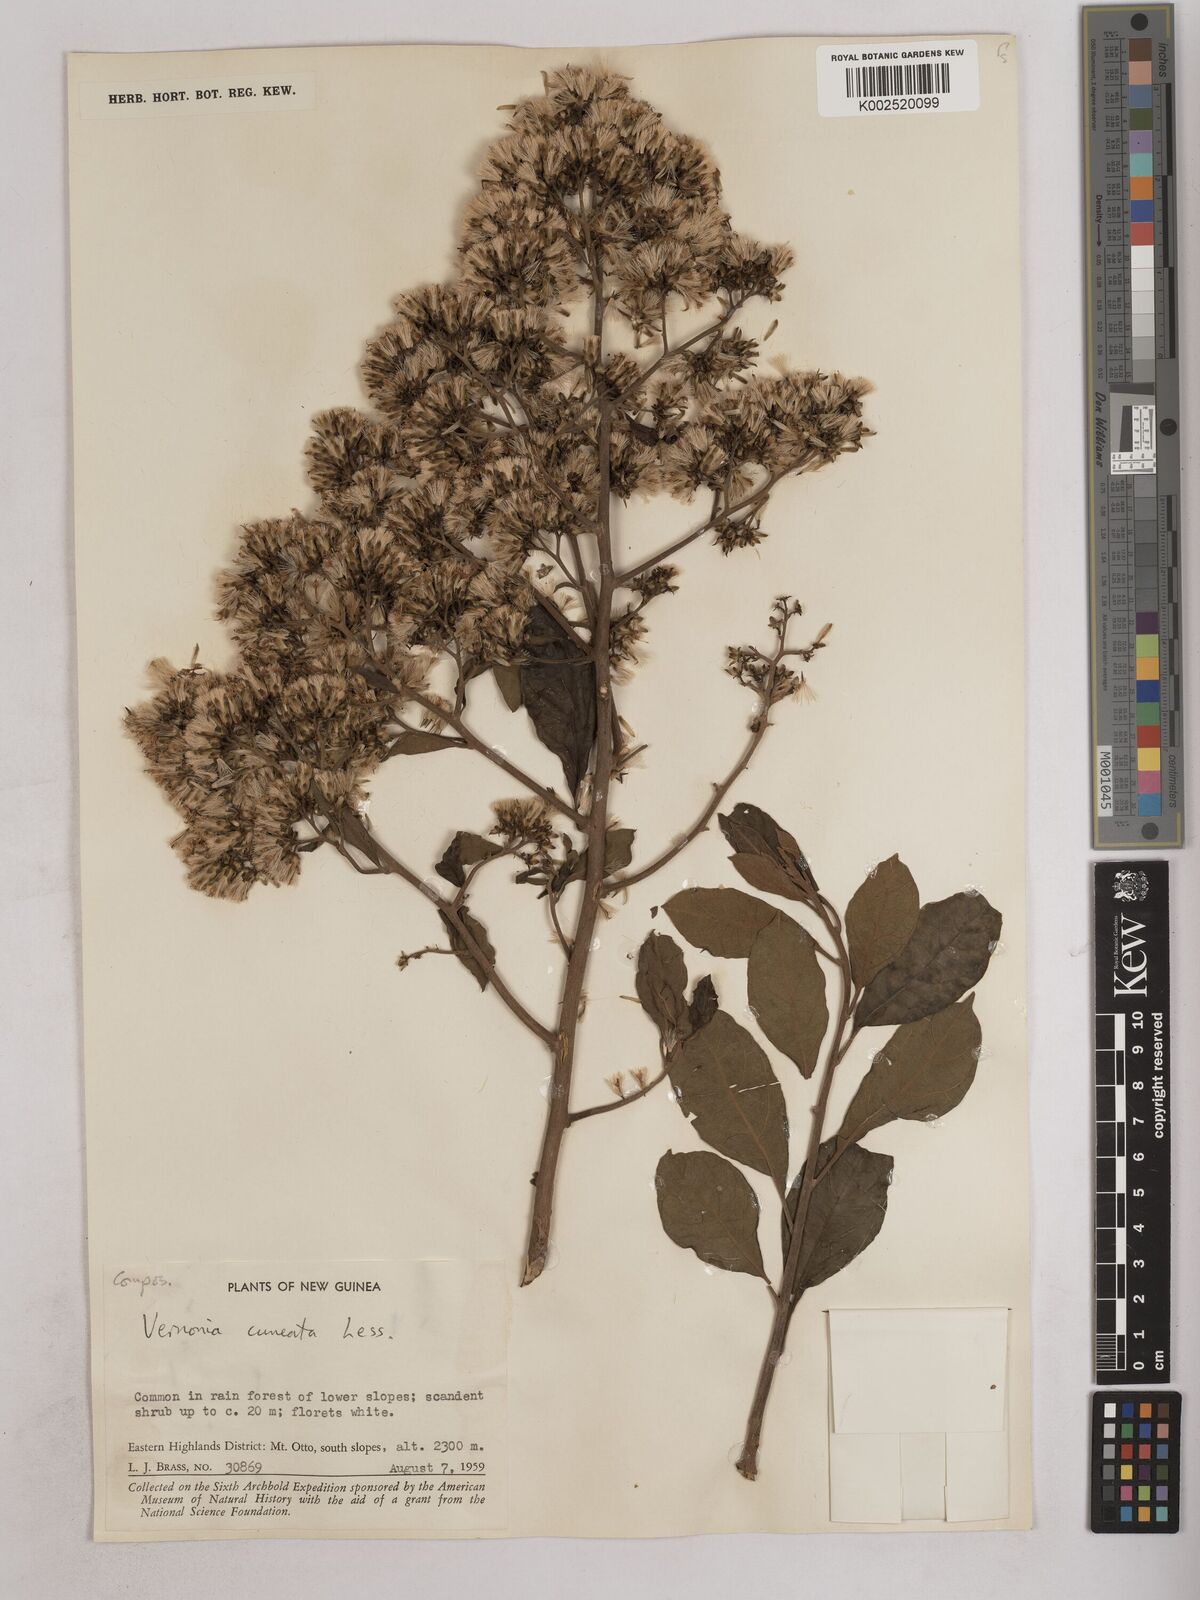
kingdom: Plantae
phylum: Tracheophyta
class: Magnoliopsida
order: Asterales
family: Asteraceae
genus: Decaneuropsis
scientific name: Decaneuropsis obovata
